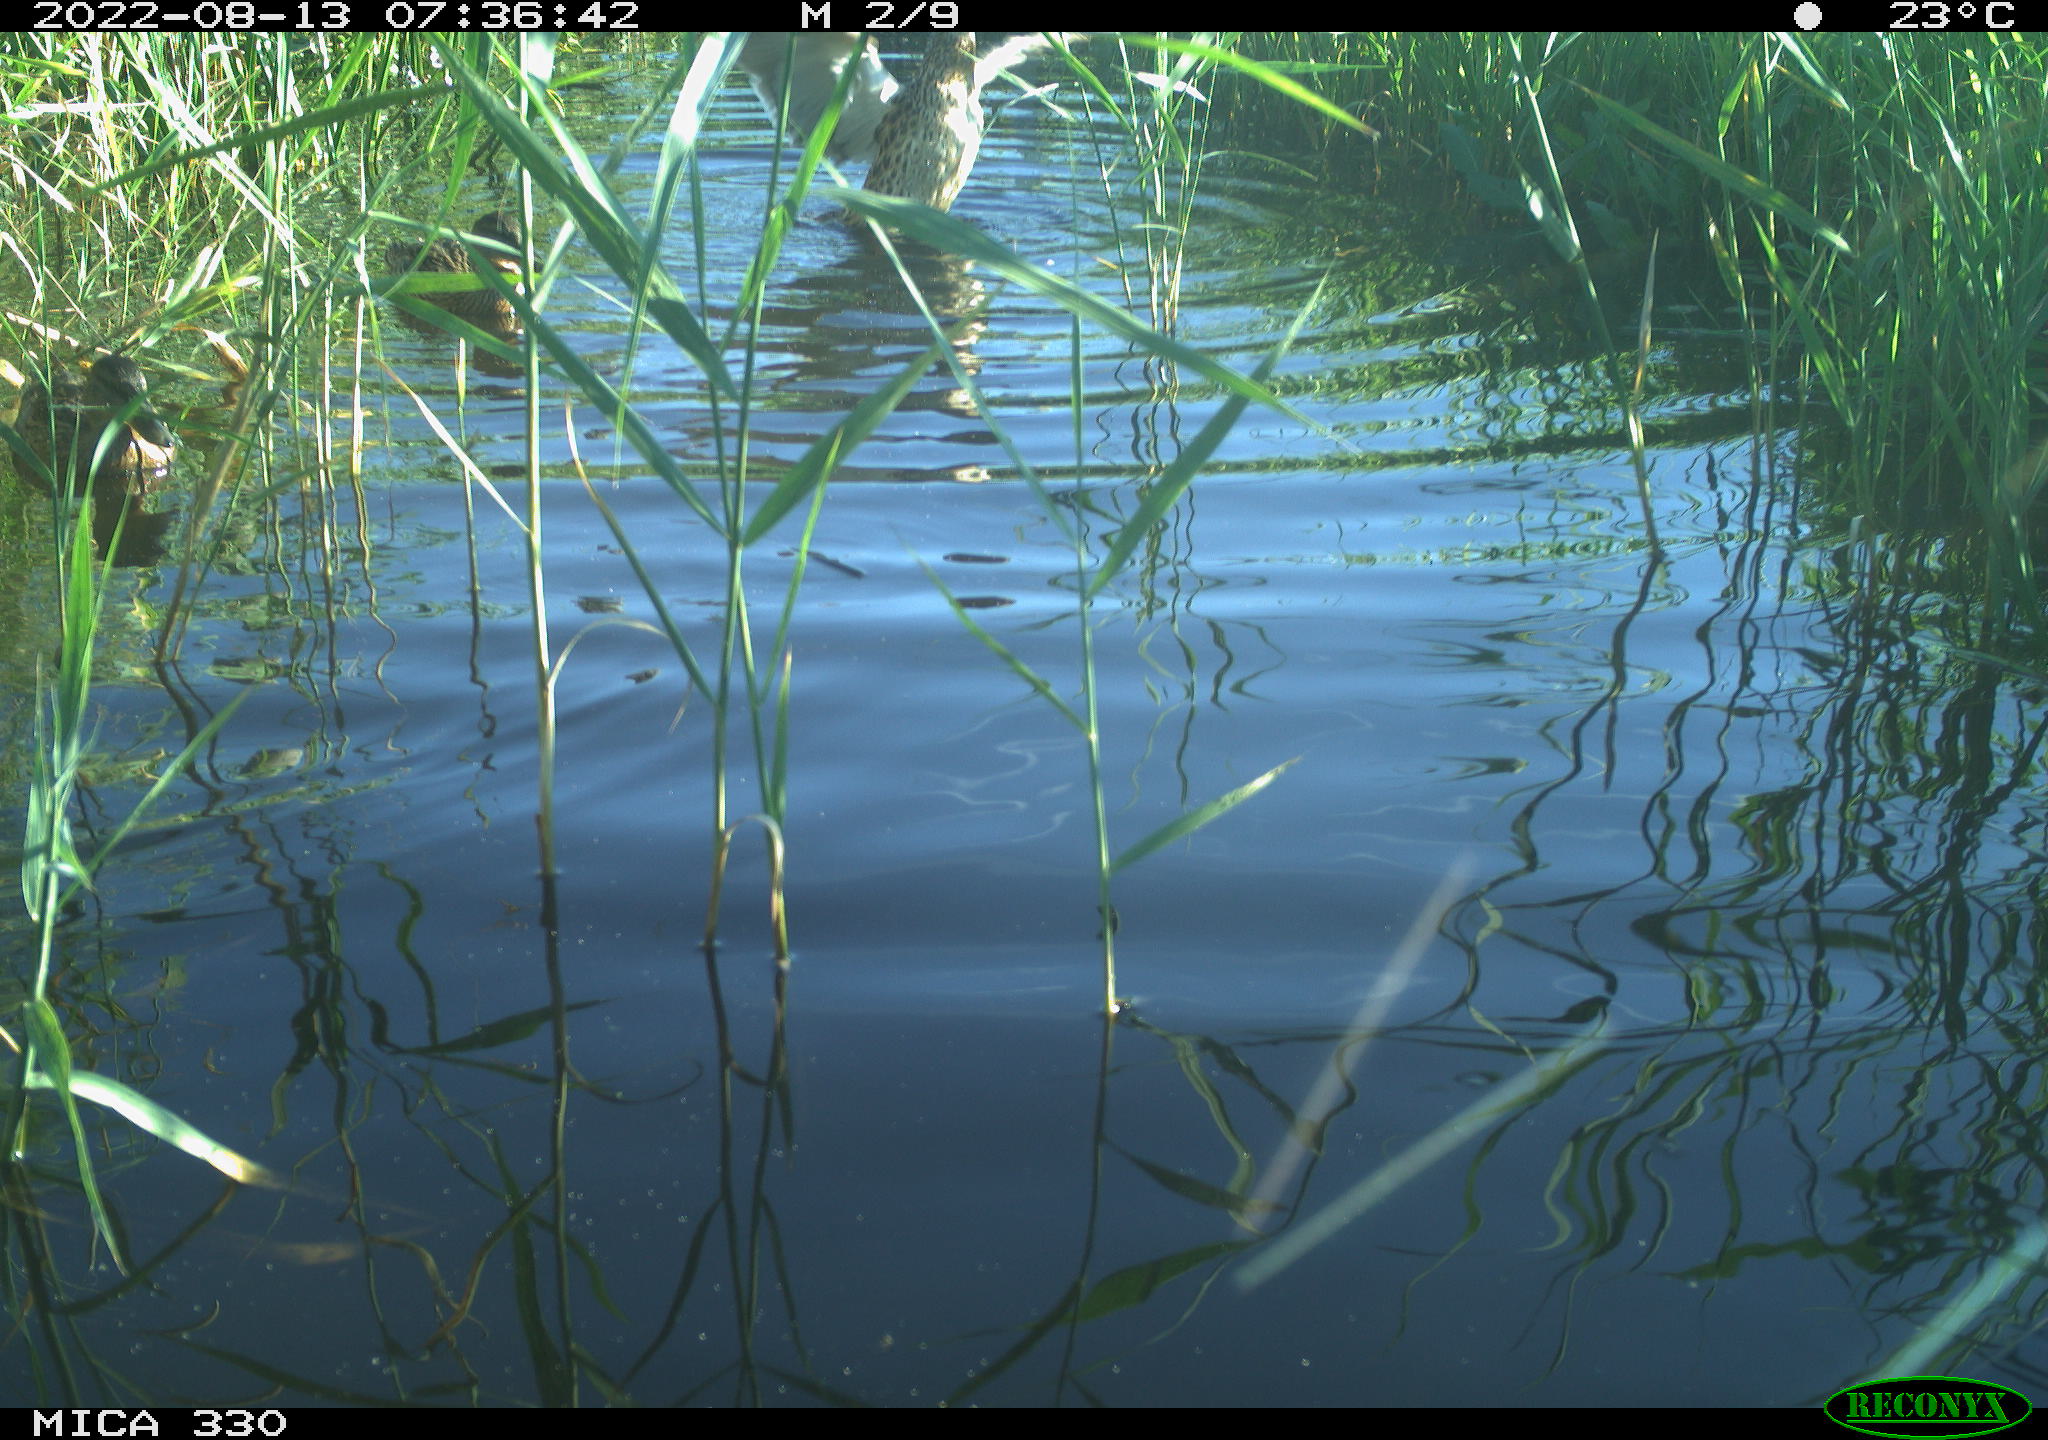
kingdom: Animalia
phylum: Chordata
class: Aves
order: Anseriformes
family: Anatidae
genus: Anas
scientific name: Anas platyrhynchos
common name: Mallard
